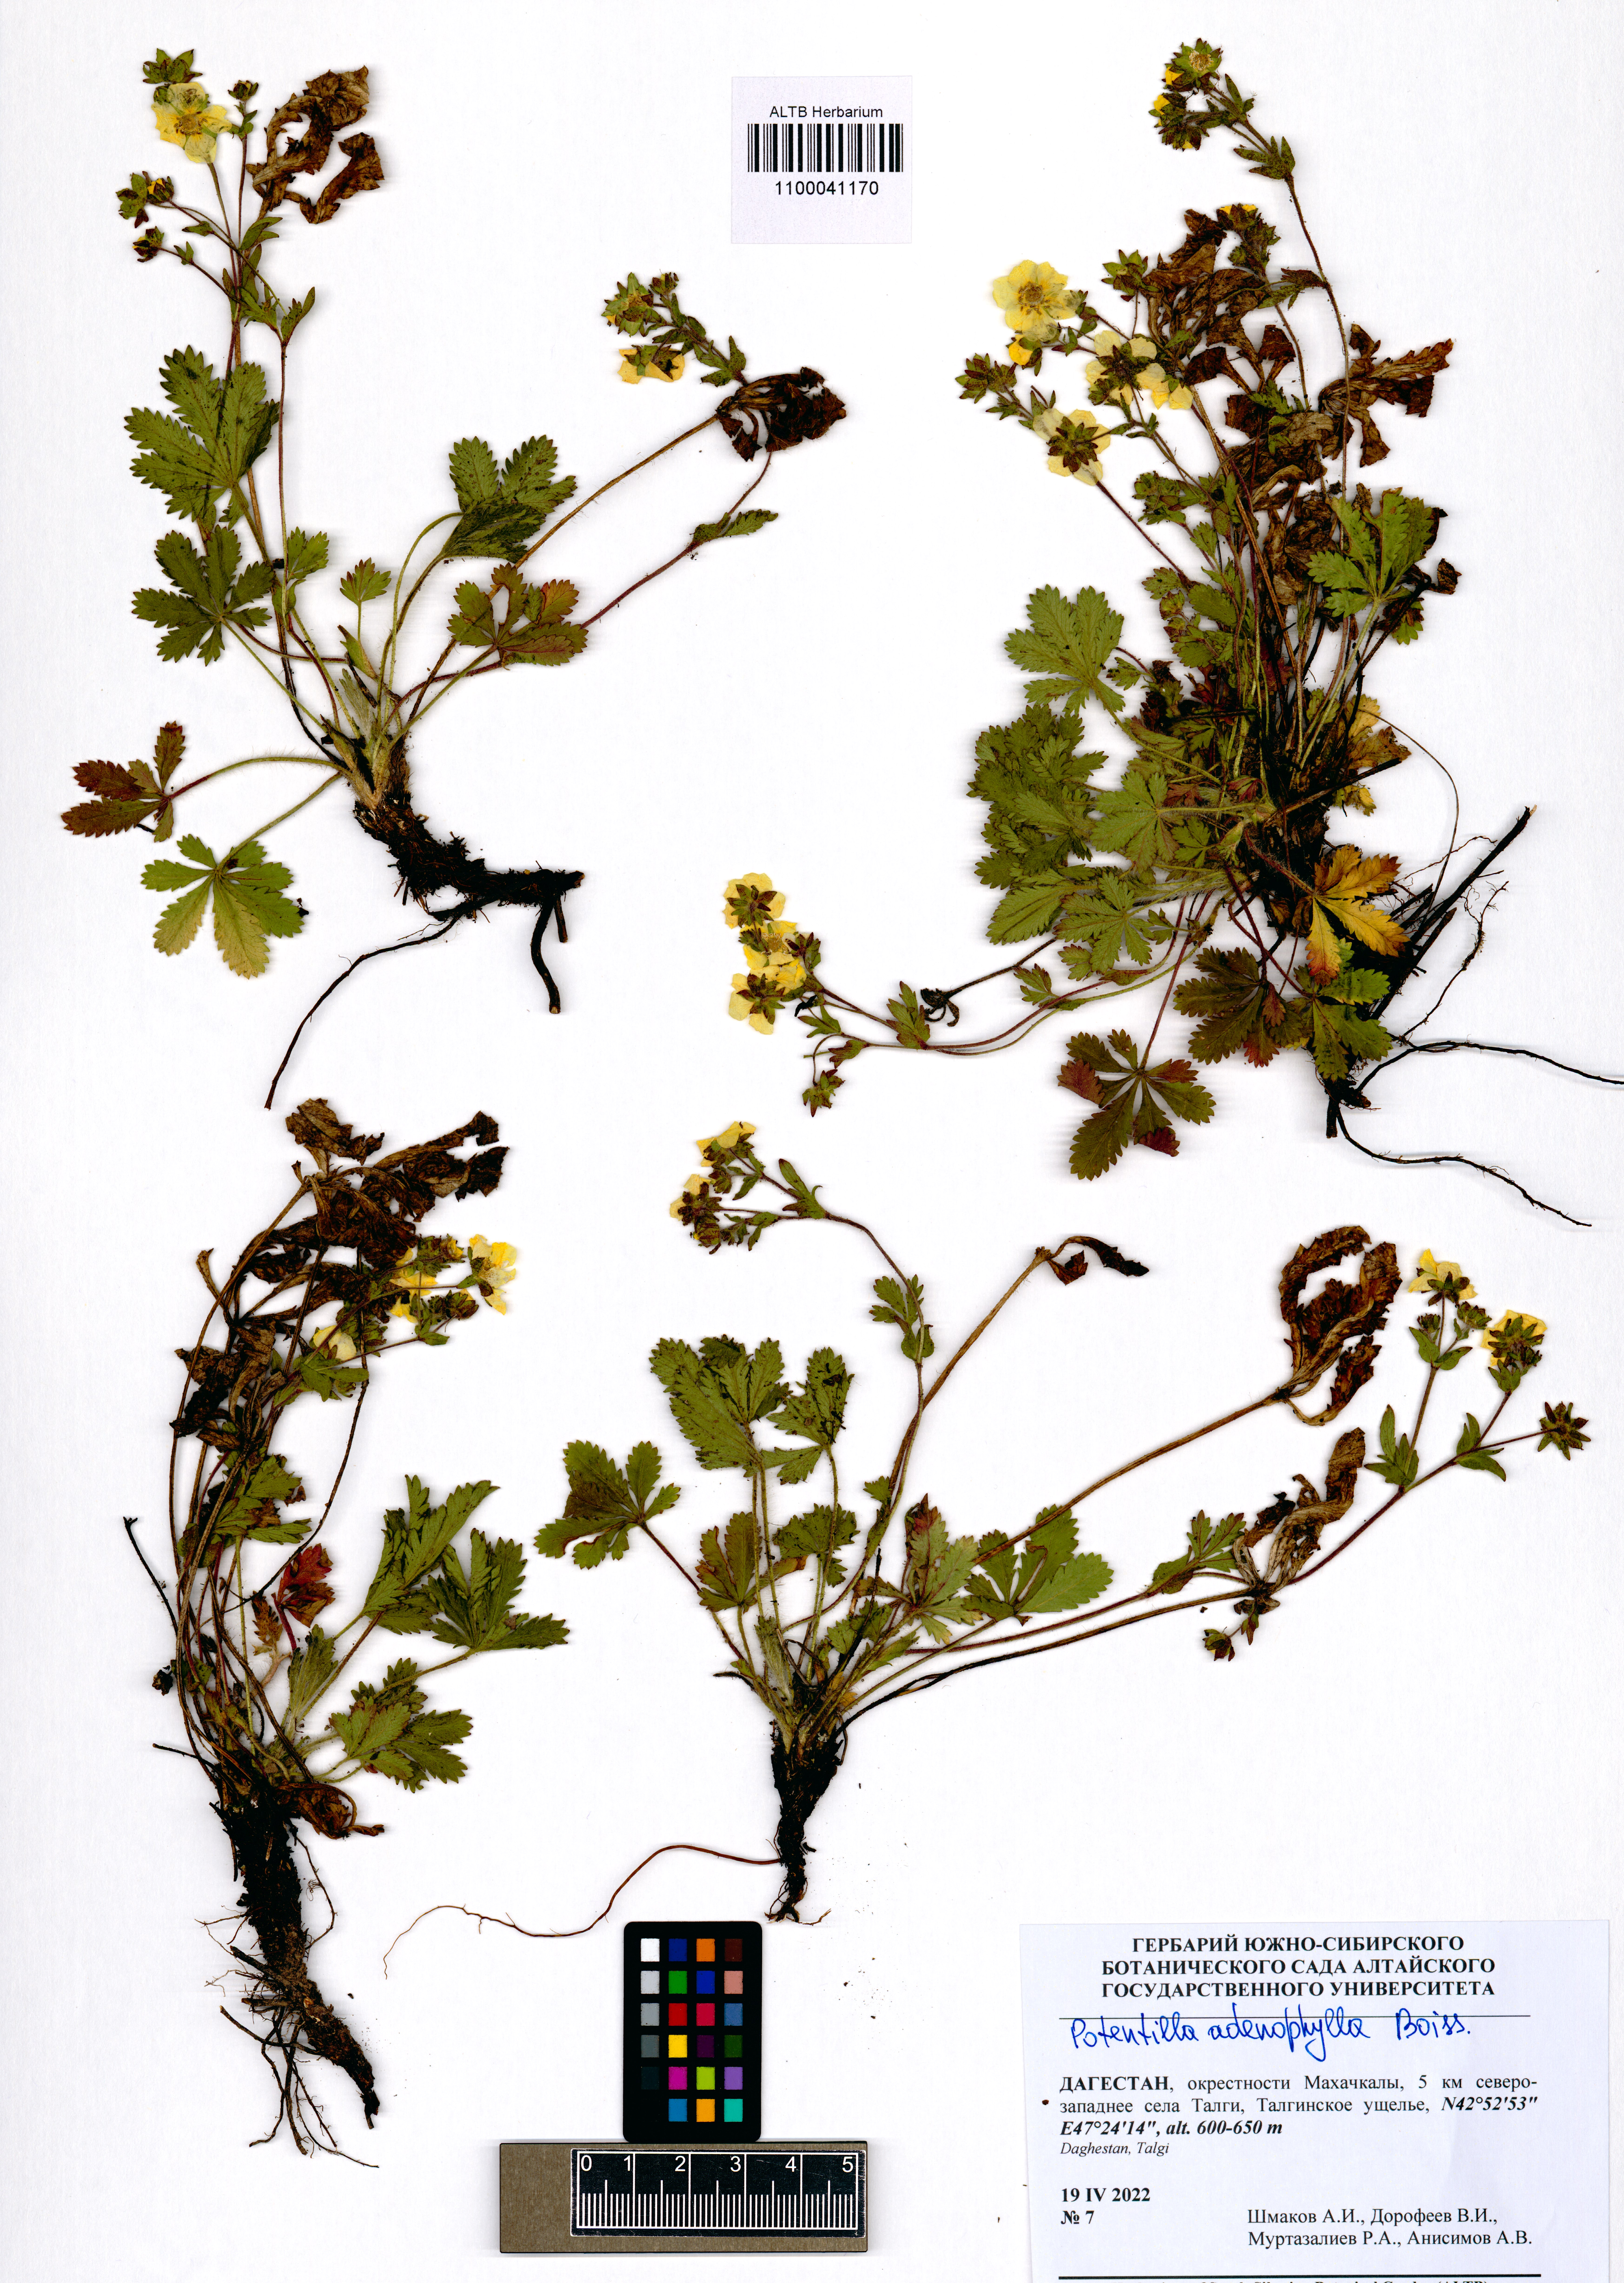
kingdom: Plantae
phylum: Tracheophyta
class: Magnoliopsida
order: Rosales
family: Rosaceae
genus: Potentilla
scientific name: Potentilla humifusa
